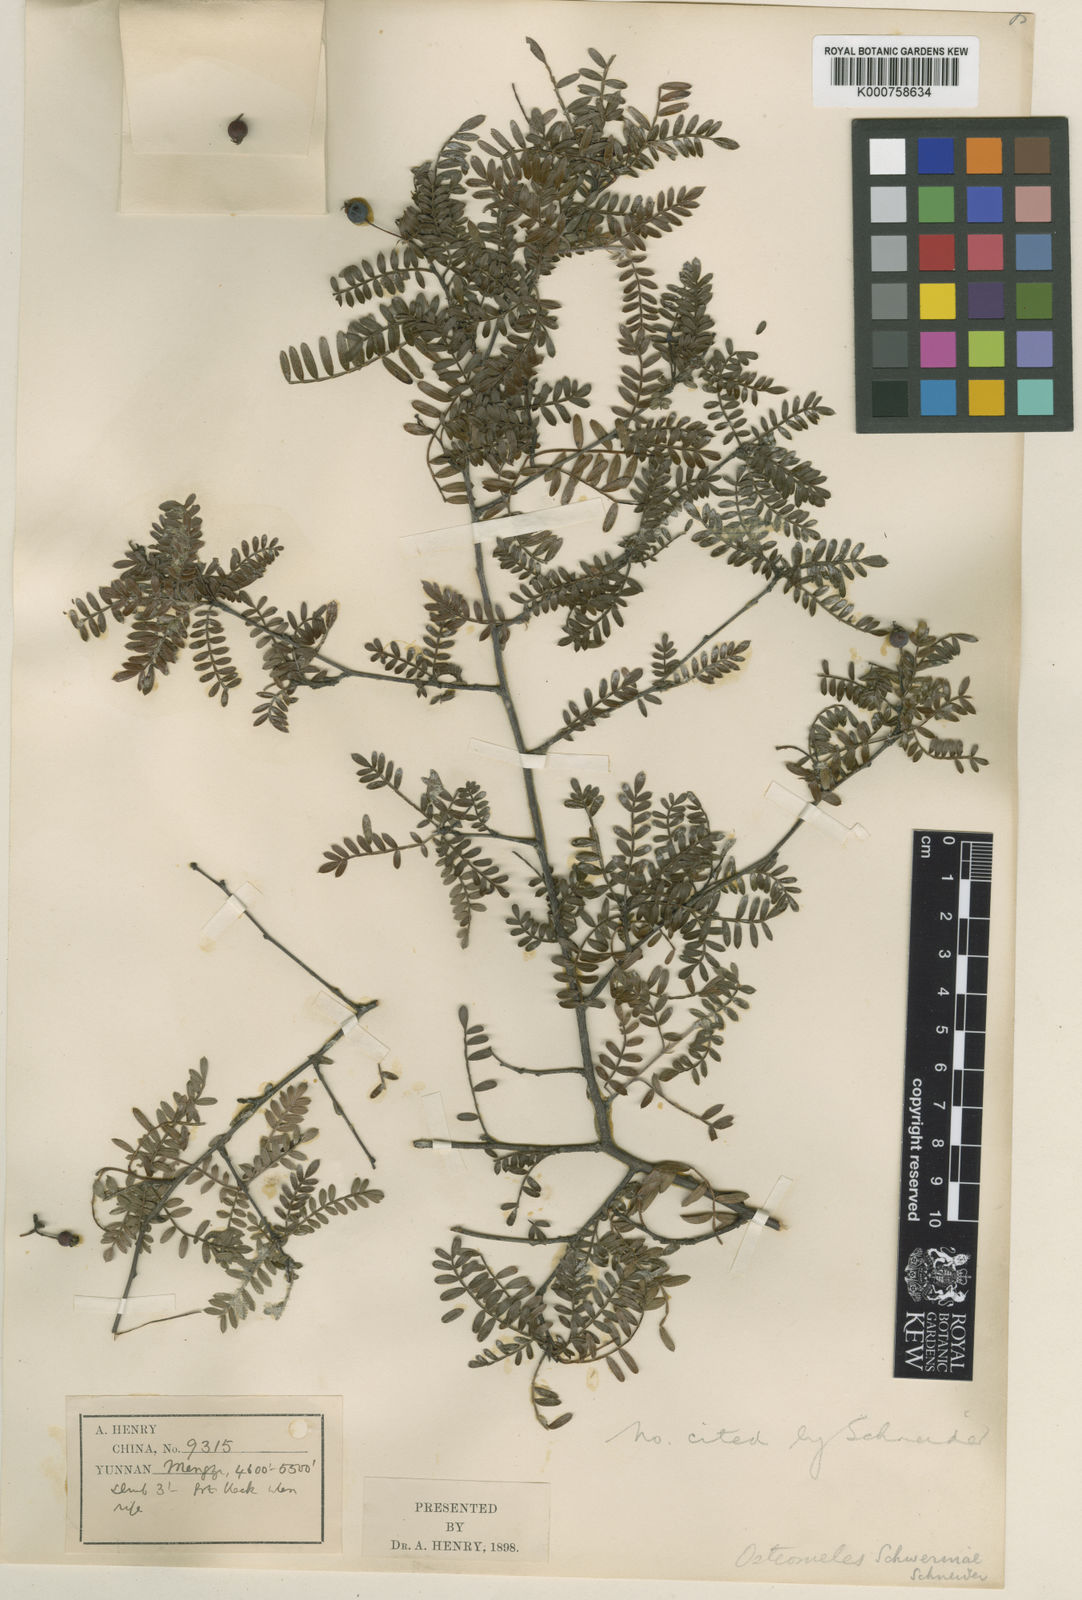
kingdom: Plantae
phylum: Tracheophyta
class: Magnoliopsida
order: Rosales
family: Rosaceae
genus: Osteomeles
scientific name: Osteomeles schwerinae
